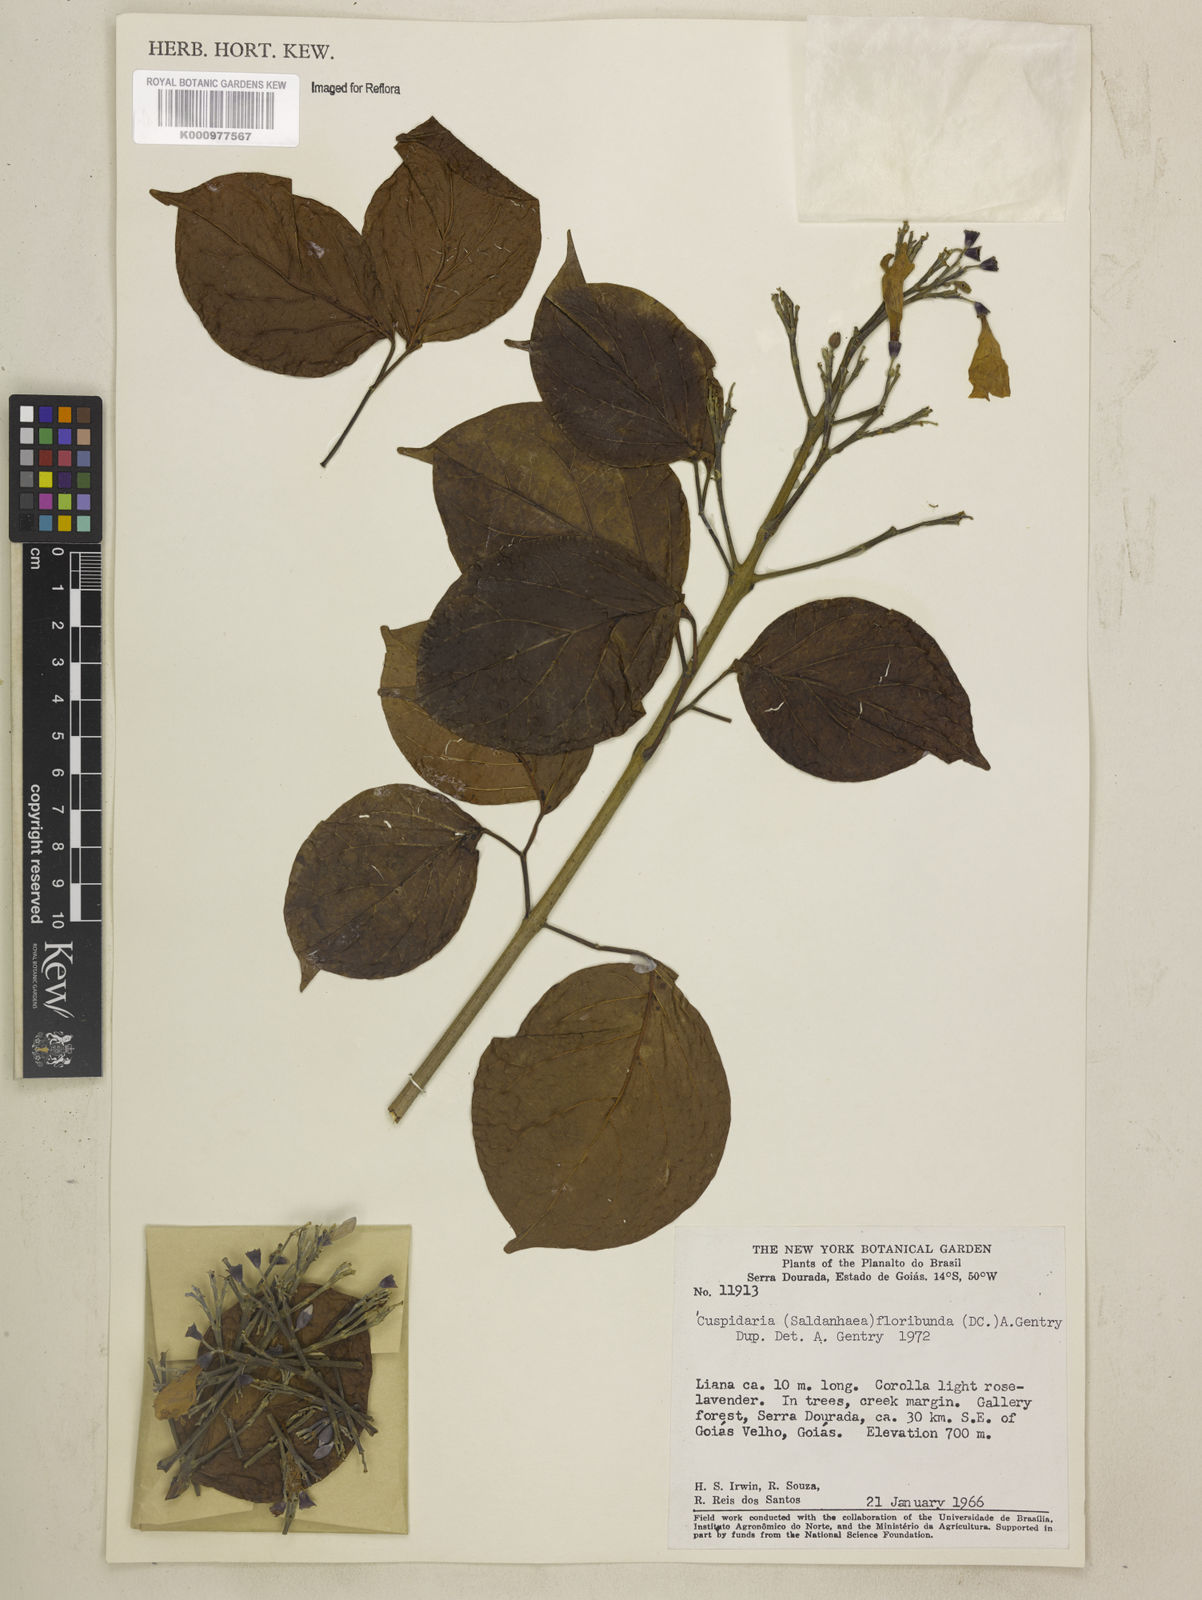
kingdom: Plantae
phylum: Tracheophyta
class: Magnoliopsida
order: Lamiales
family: Bignoniaceae
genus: Cuspidaria
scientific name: Cuspidaria floribunda
